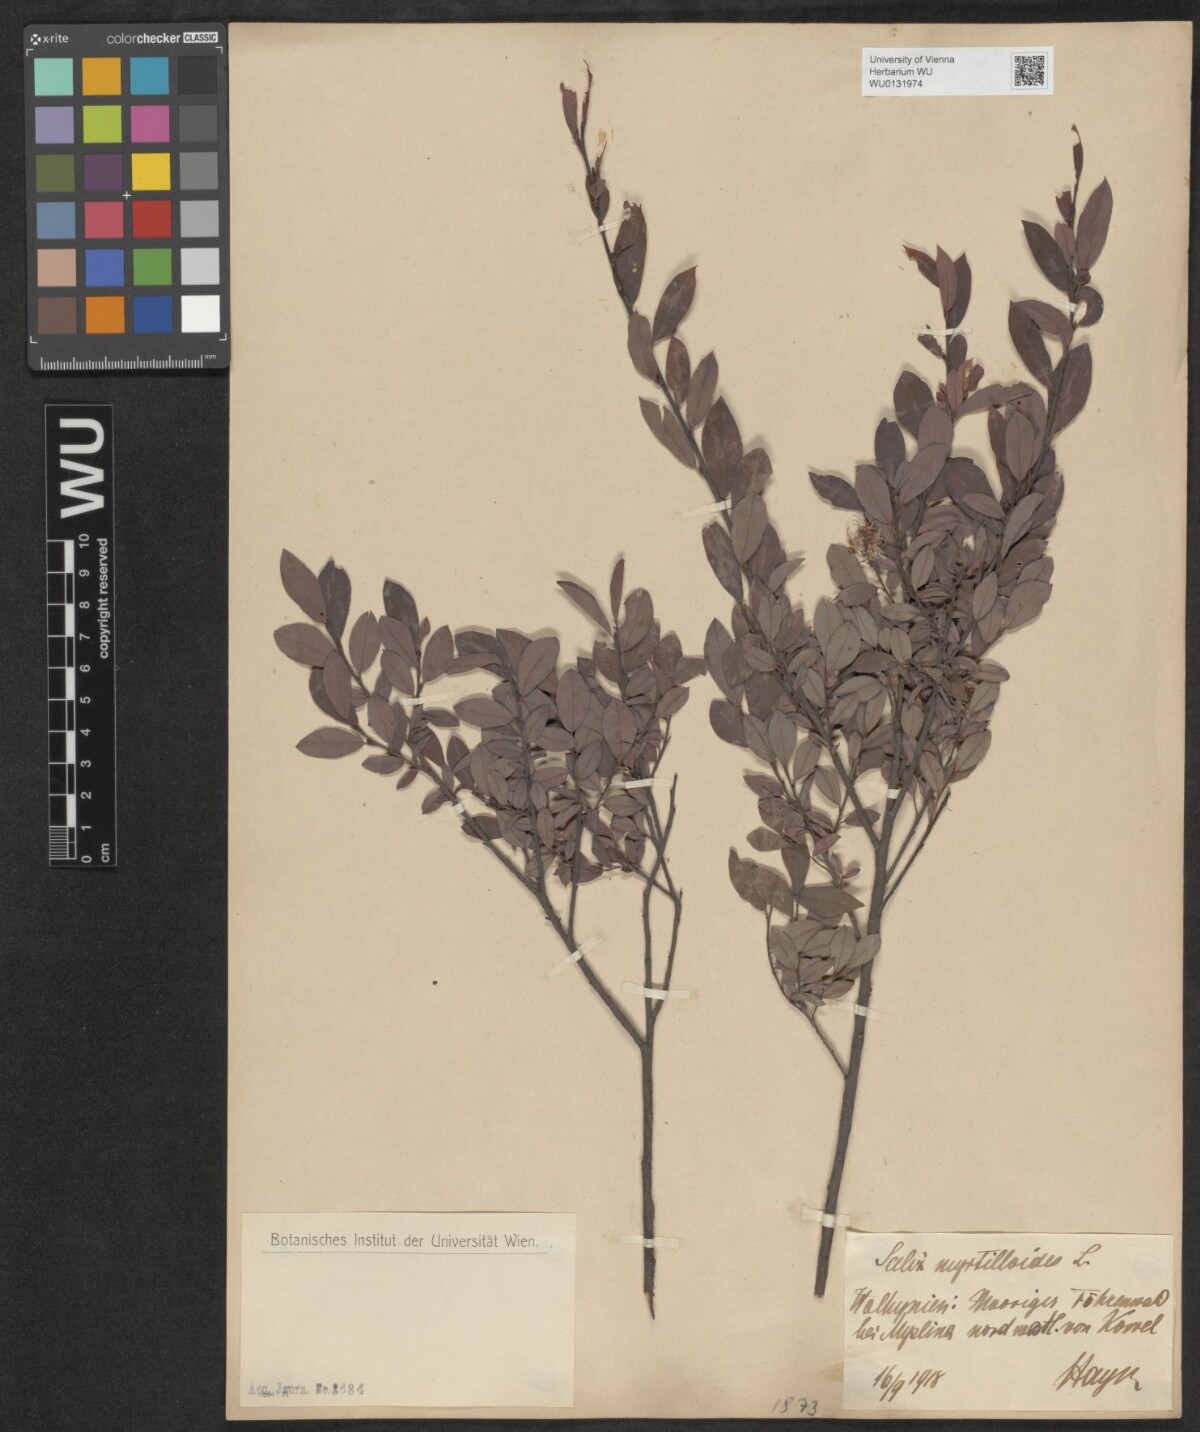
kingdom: Plantae
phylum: Tracheophyta
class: Magnoliopsida
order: Malpighiales
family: Salicaceae
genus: Salix
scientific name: Salix myrtilloides
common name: Myrtle-leaved willow
